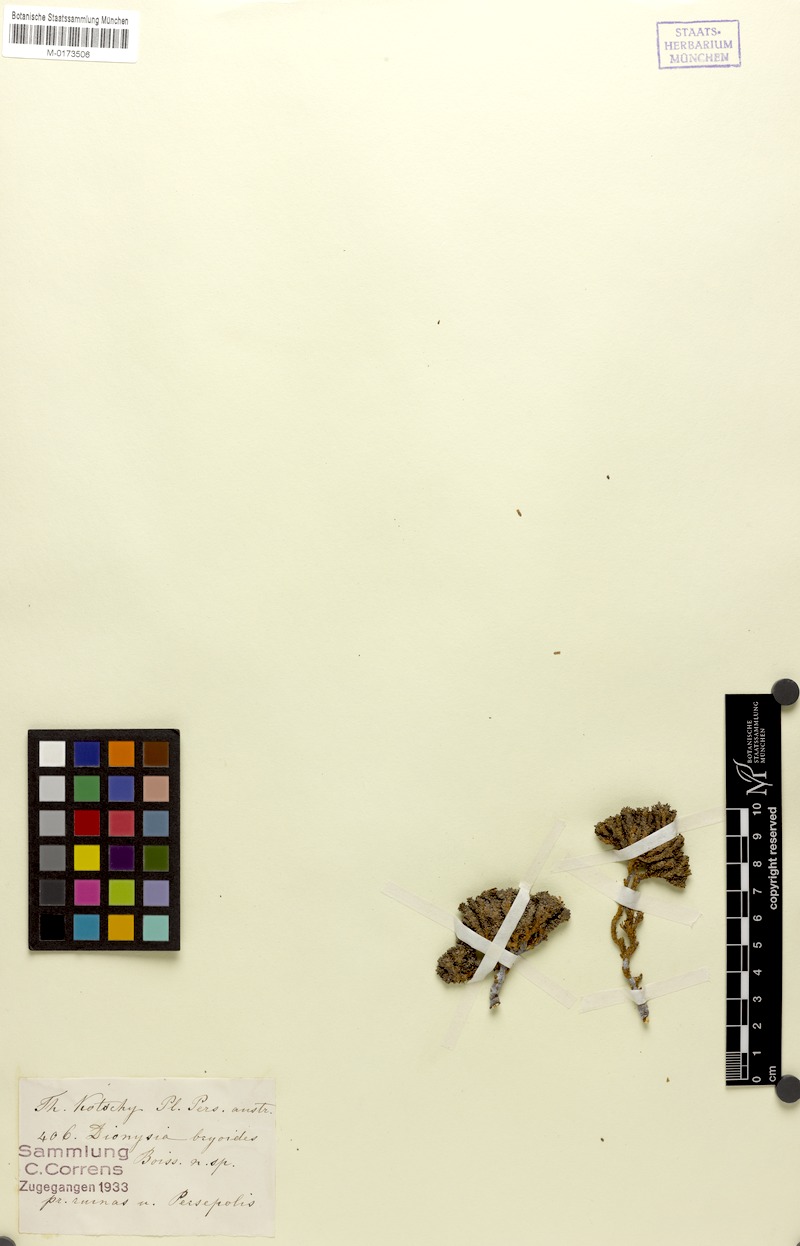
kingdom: Plantae
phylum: Tracheophyta
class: Magnoliopsida
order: Ericales
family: Primulaceae
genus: Dionysia
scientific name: Dionysia bryoides
